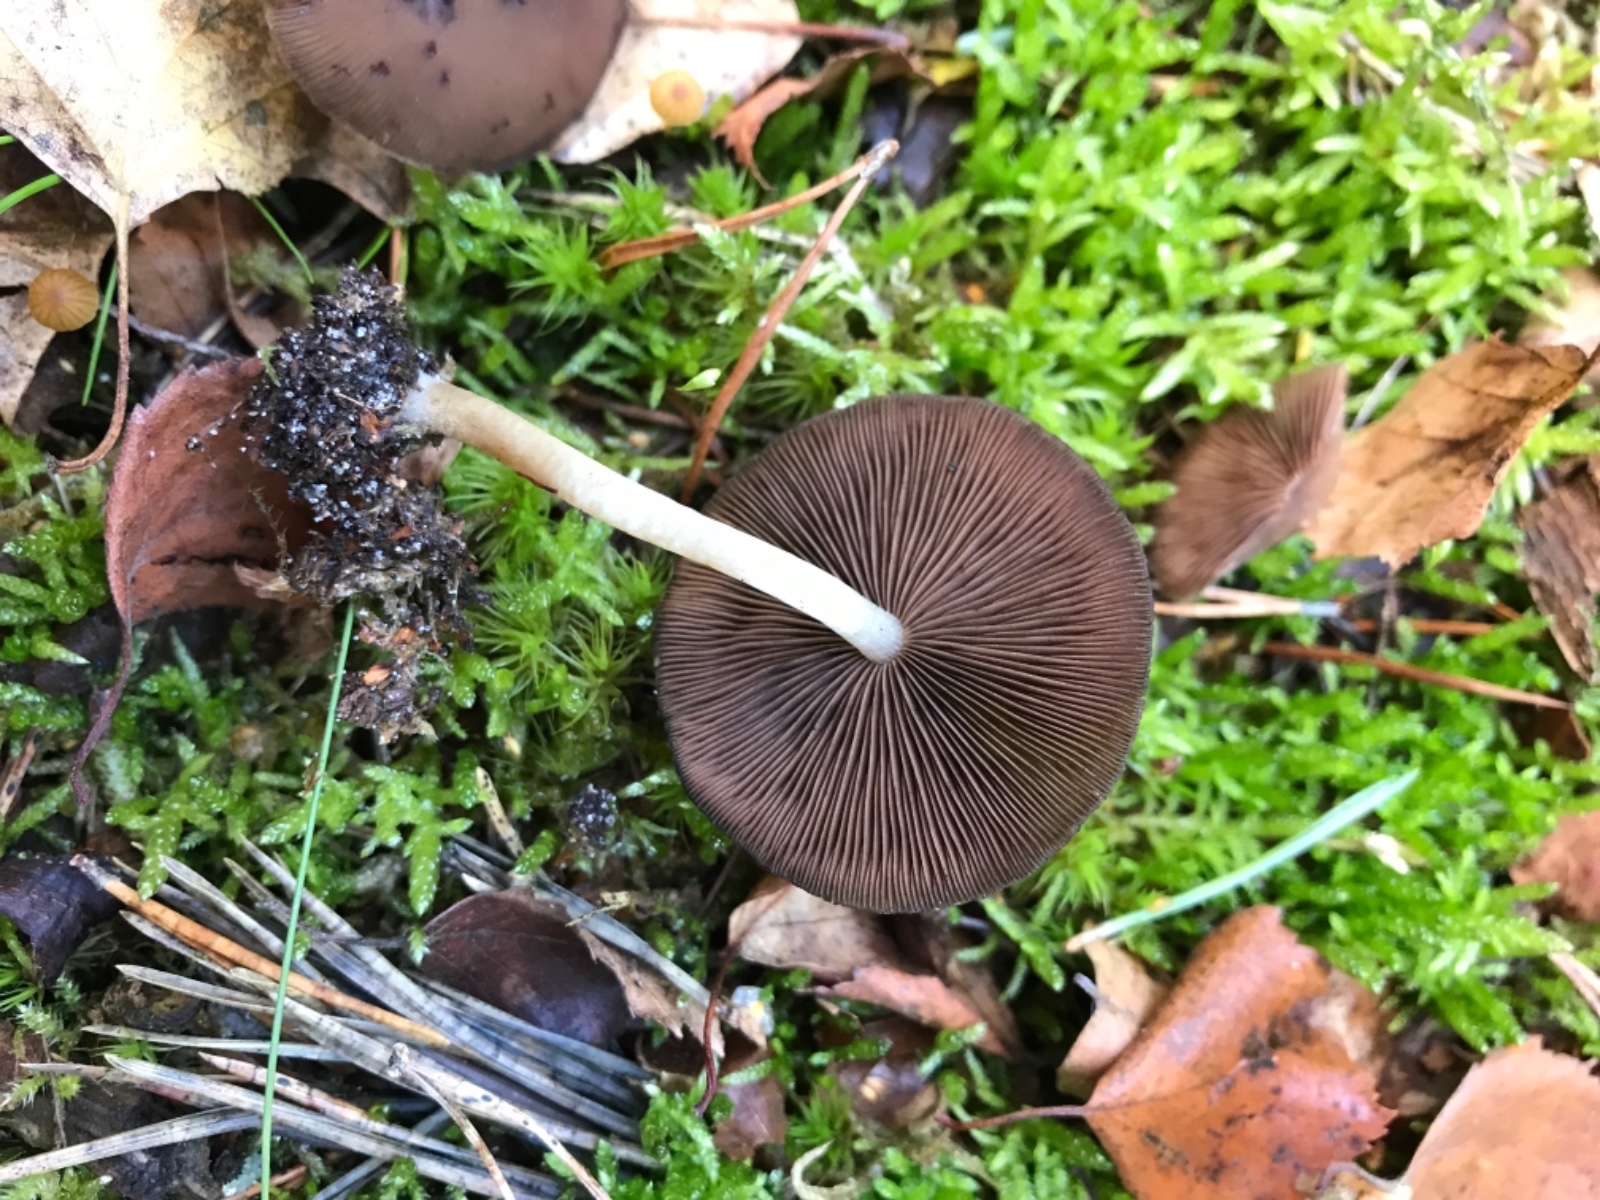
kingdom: Fungi
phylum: Basidiomycota
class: Agaricomycetes
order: Agaricales
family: Psathyrellaceae
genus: Psathyrella
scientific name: Psathyrella piluliformis
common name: lysstokket mørkhat
